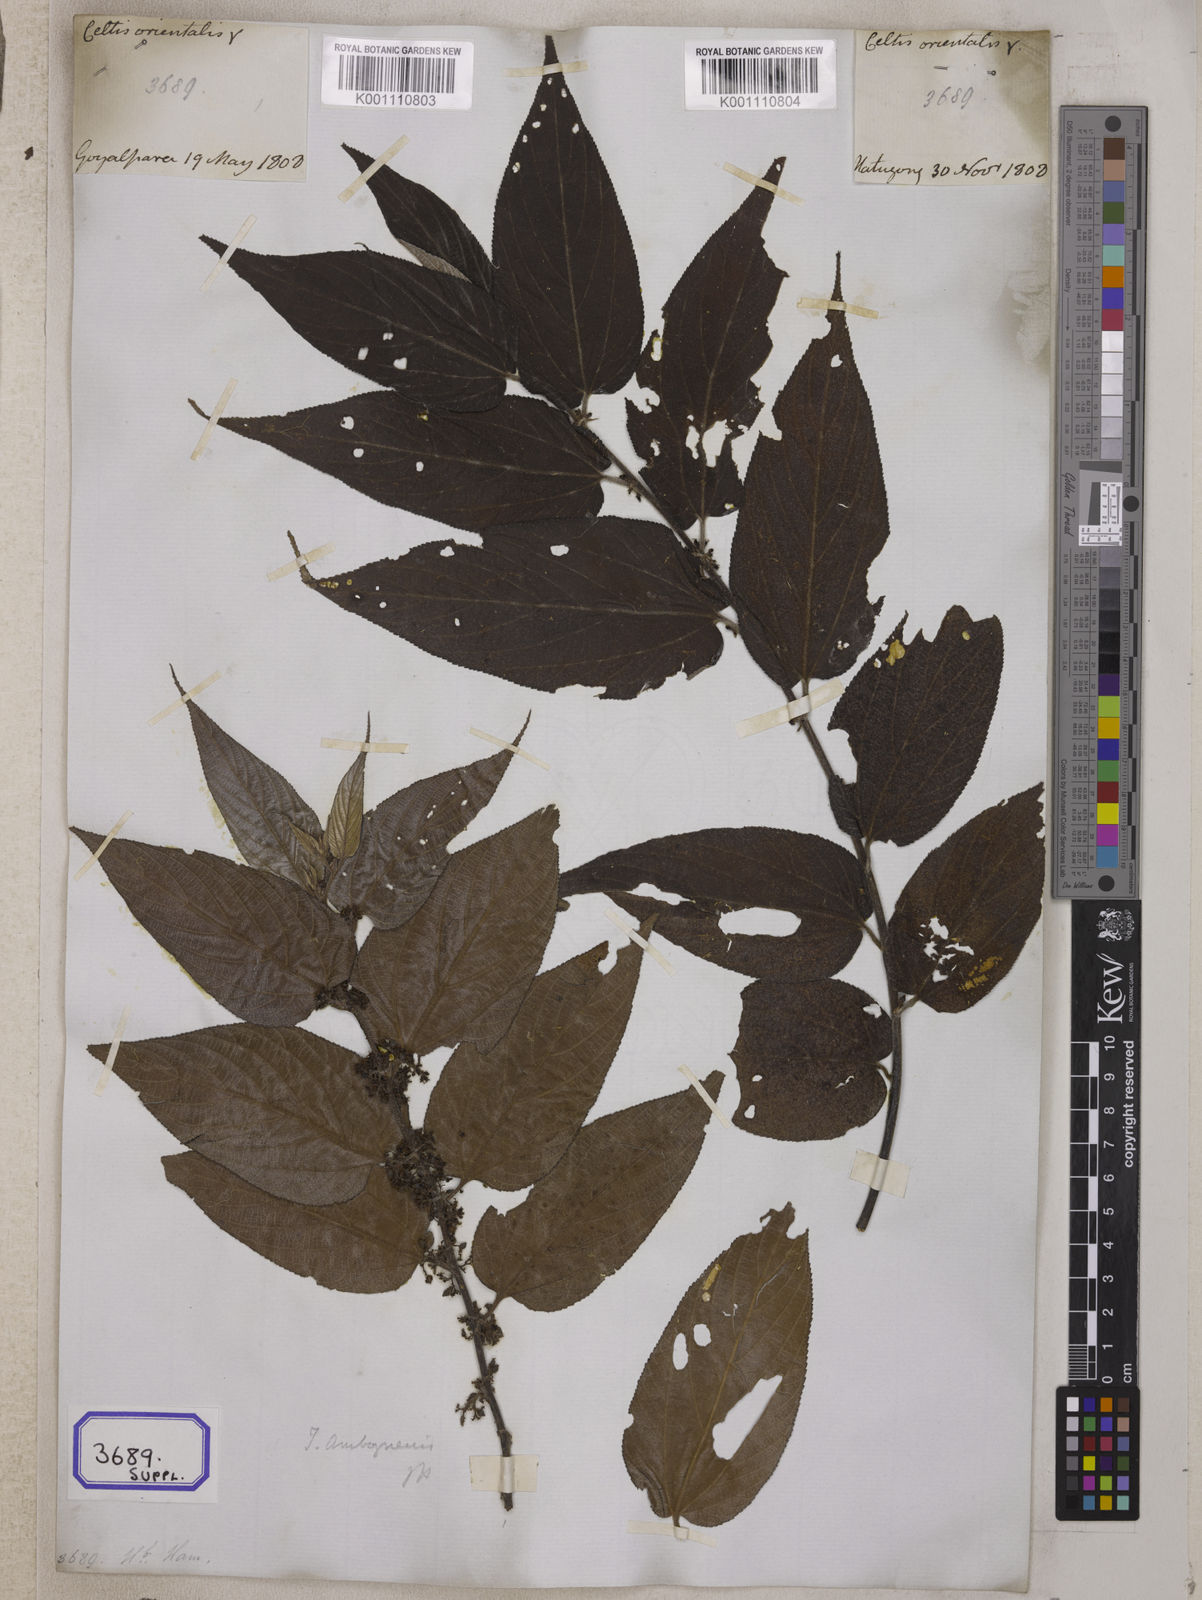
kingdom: Plantae
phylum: Tracheophyta
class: Magnoliopsida
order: Rosales
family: Cannabaceae
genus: Trema
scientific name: Trema orientale
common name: Indian charcoal tree
